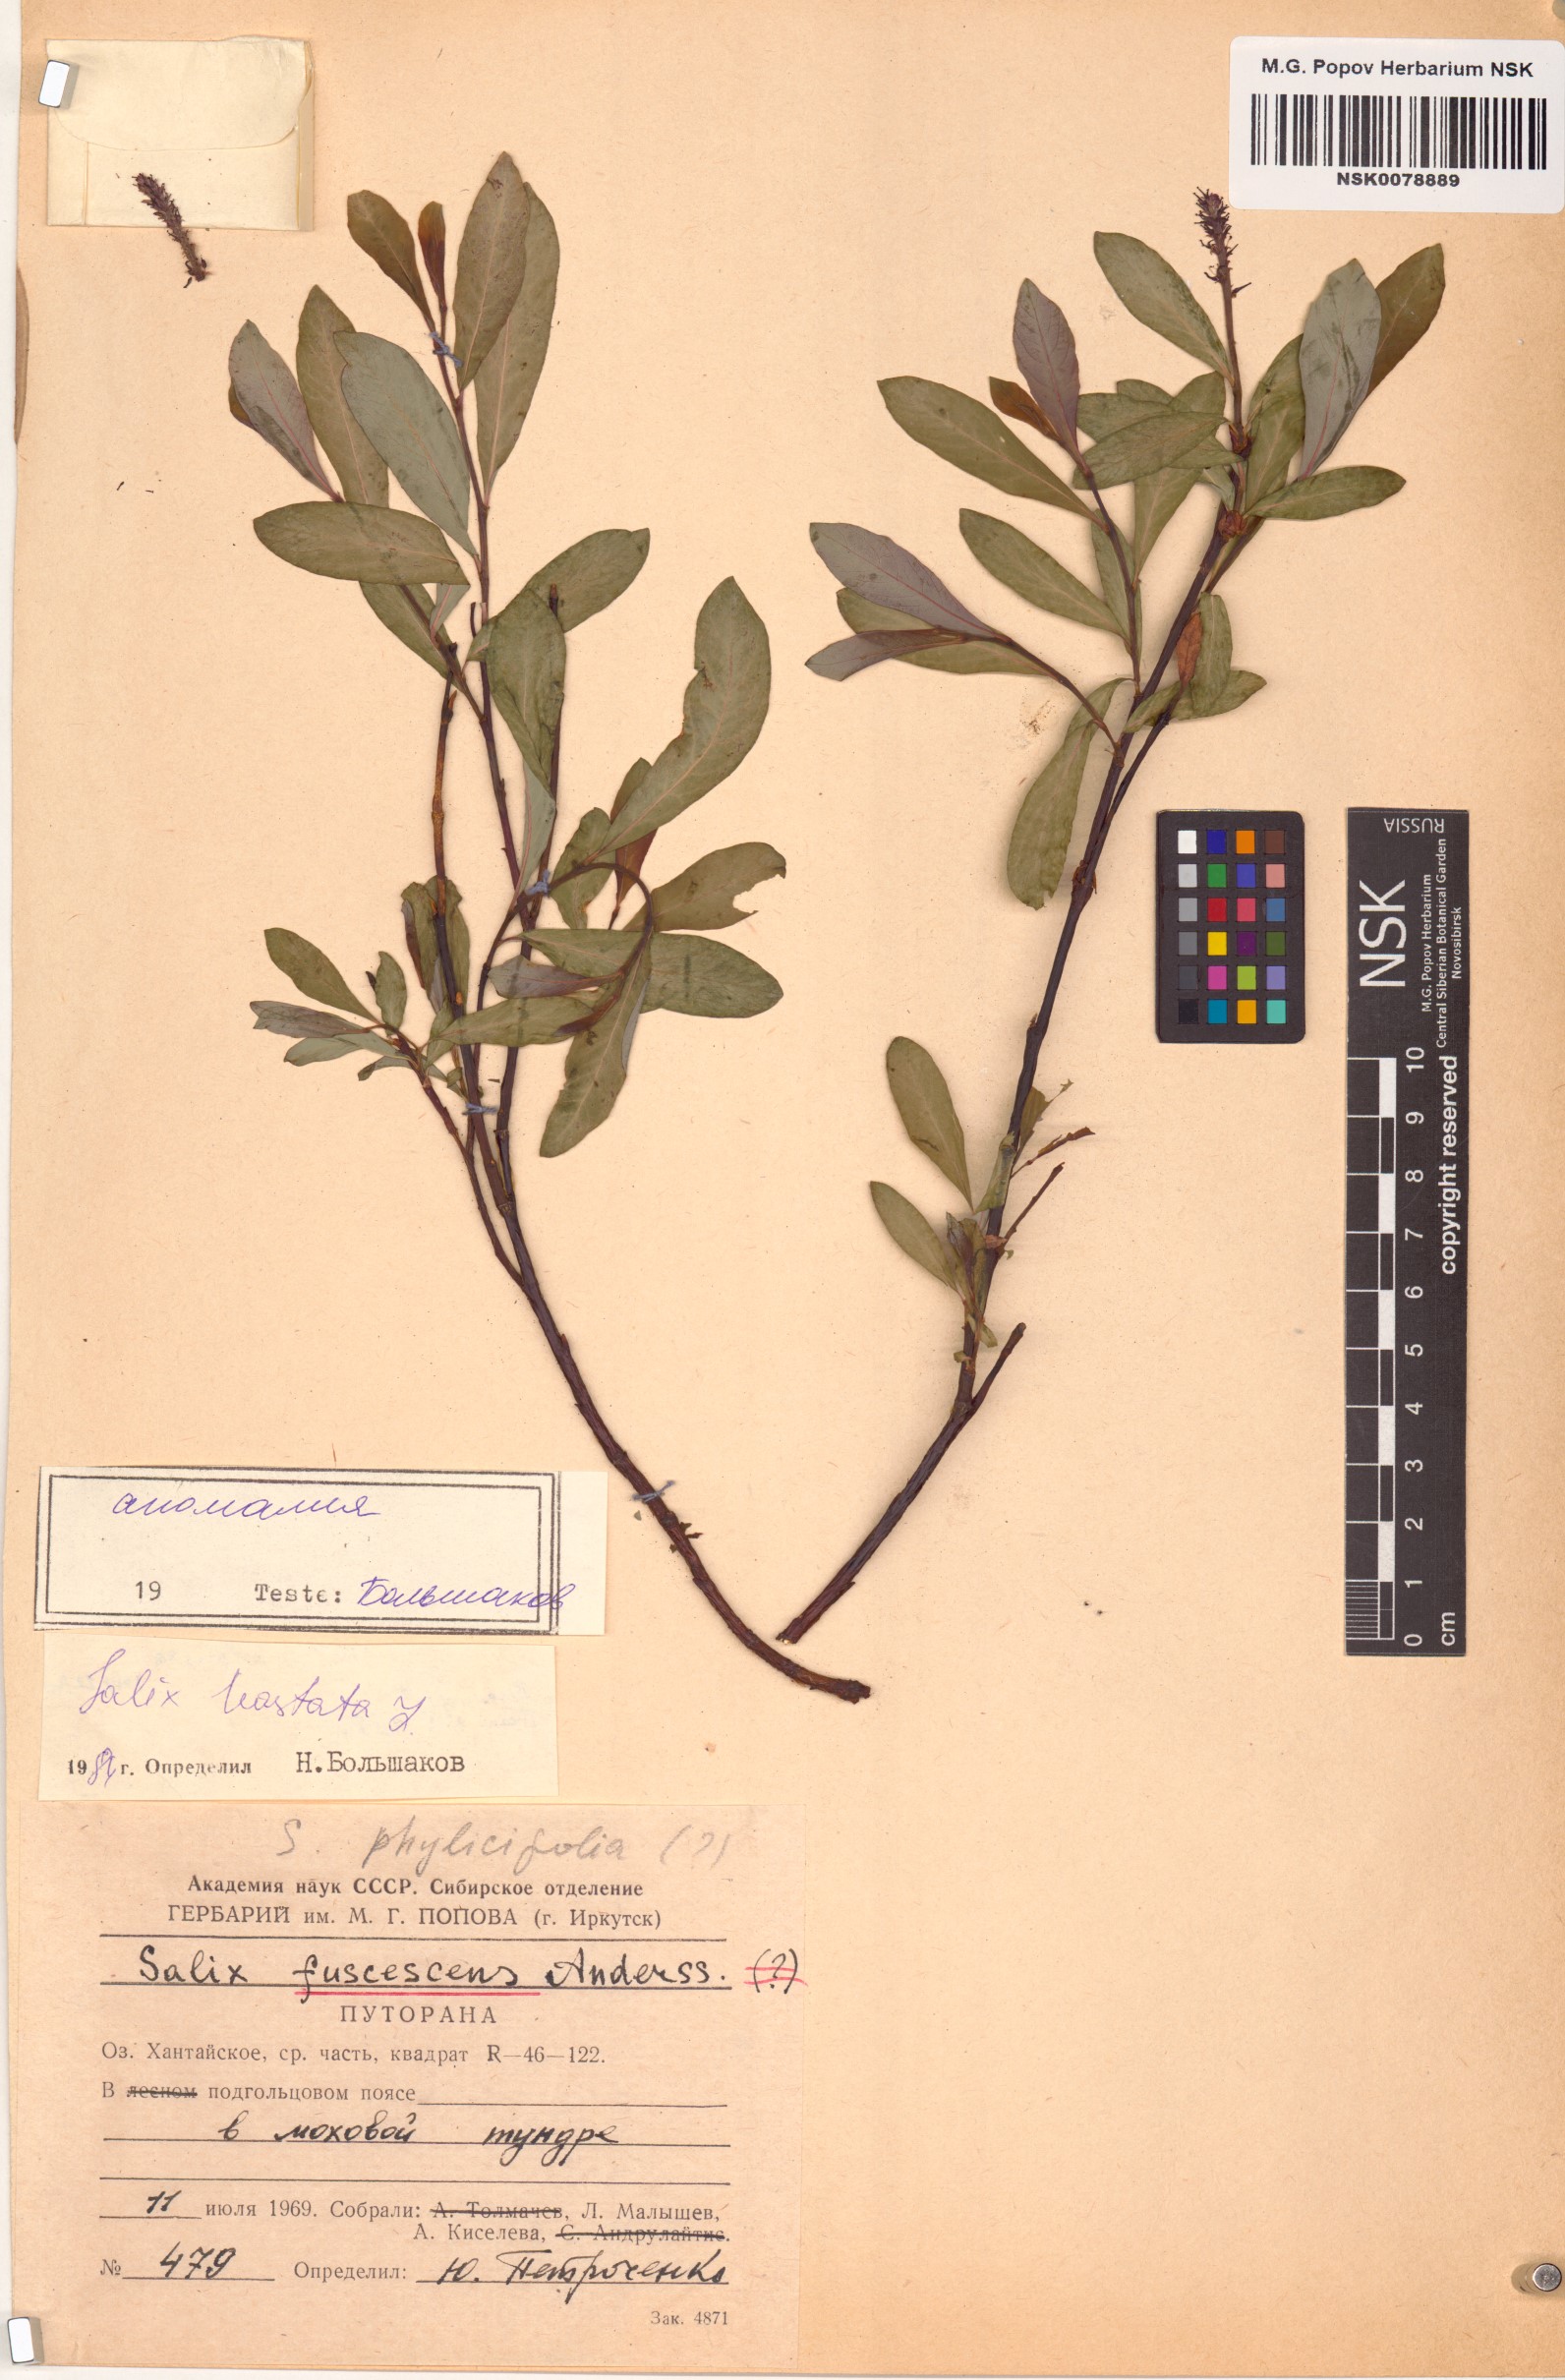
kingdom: Plantae
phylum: Tracheophyta
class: Magnoliopsida
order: Malpighiales
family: Salicaceae
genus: Salix
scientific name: Salix hastata
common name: Halberd willow
